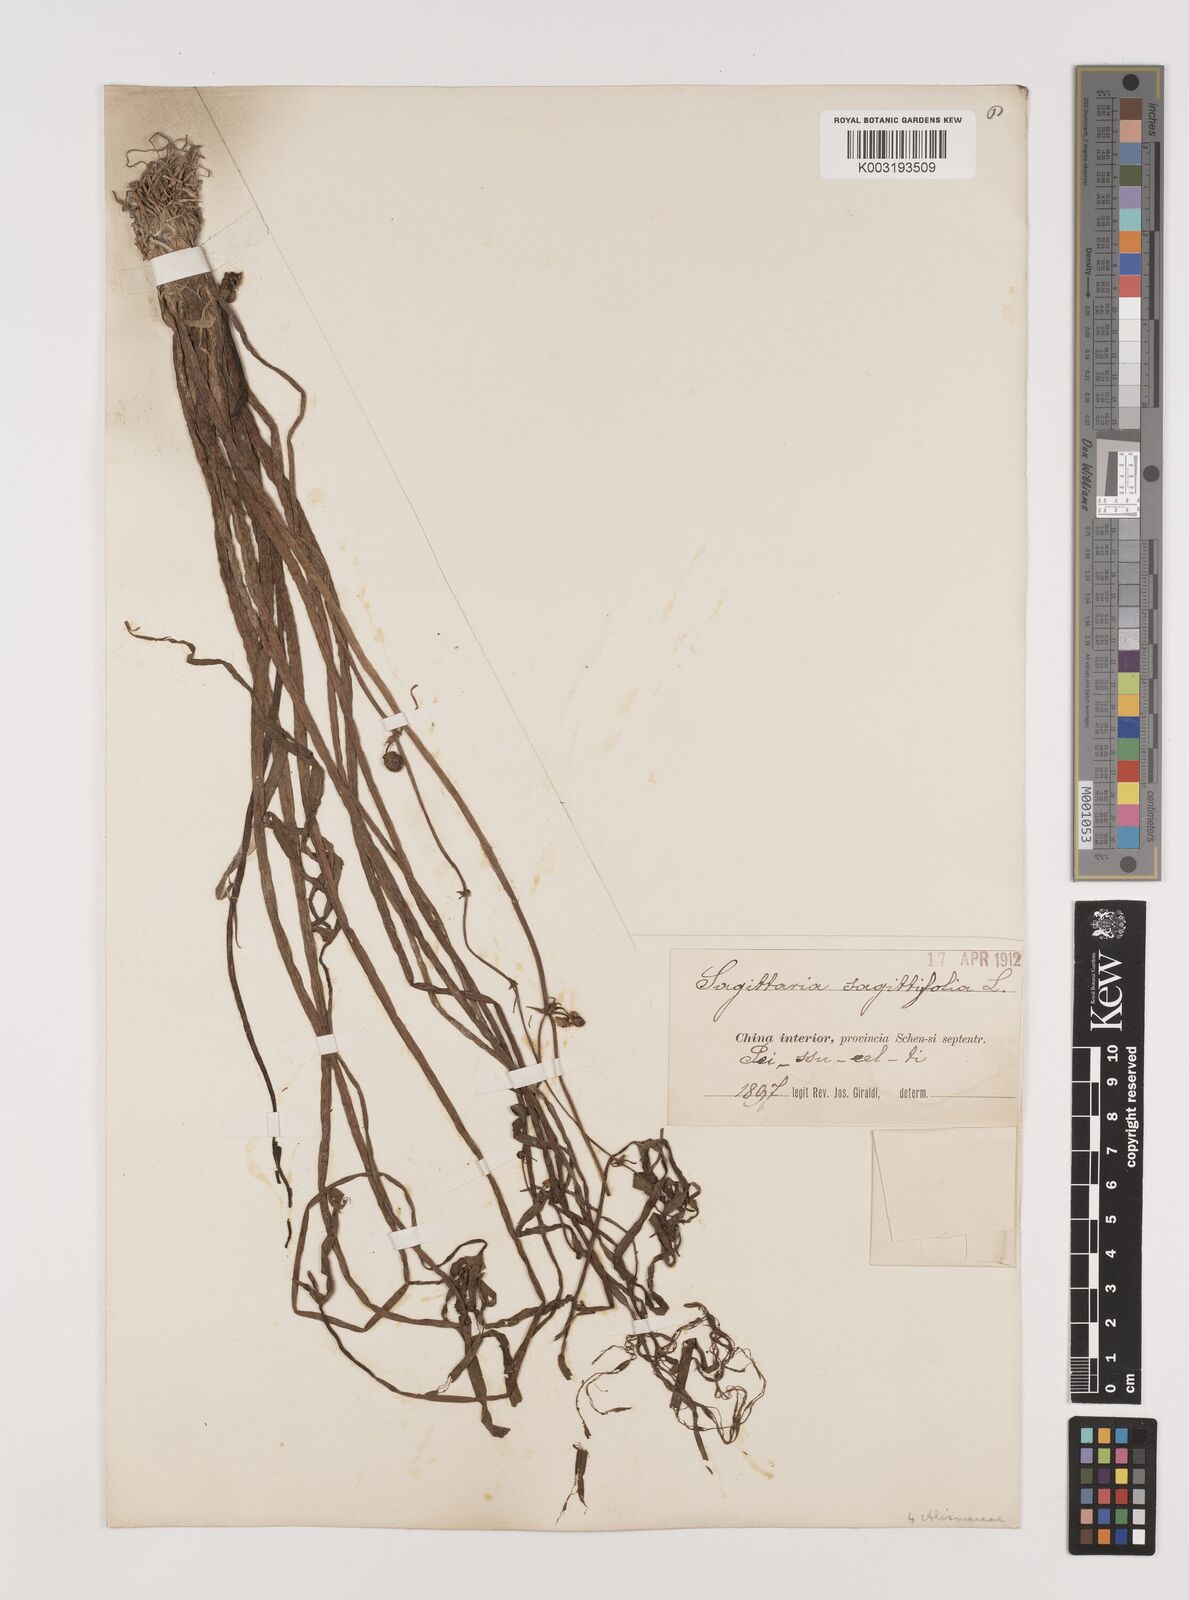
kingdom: Plantae
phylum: Tracheophyta
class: Liliopsida
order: Alismatales
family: Alismataceae
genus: Sagittaria
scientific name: Sagittaria sagittifolia
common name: Arrowhead
